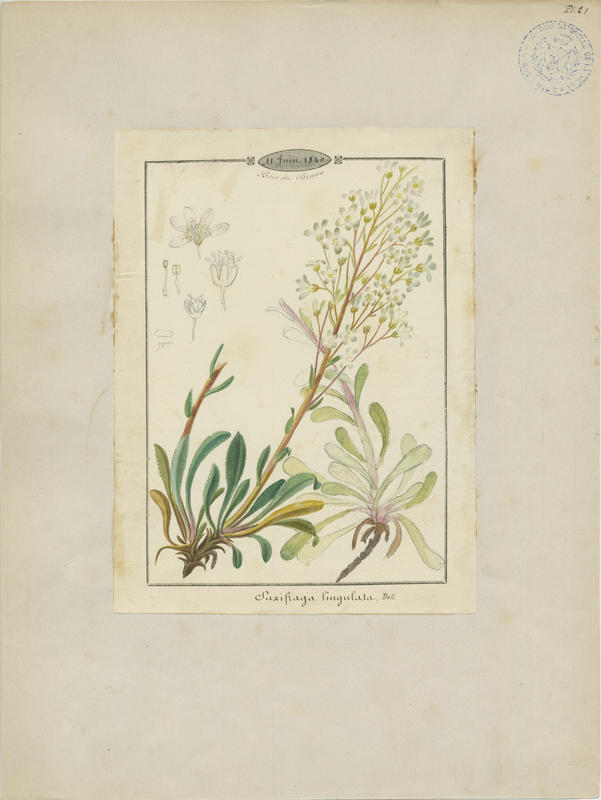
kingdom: Plantae
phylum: Tracheophyta
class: Magnoliopsida
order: Saxifragales
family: Saxifragaceae
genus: Saxifraga
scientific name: Saxifraga callosa
